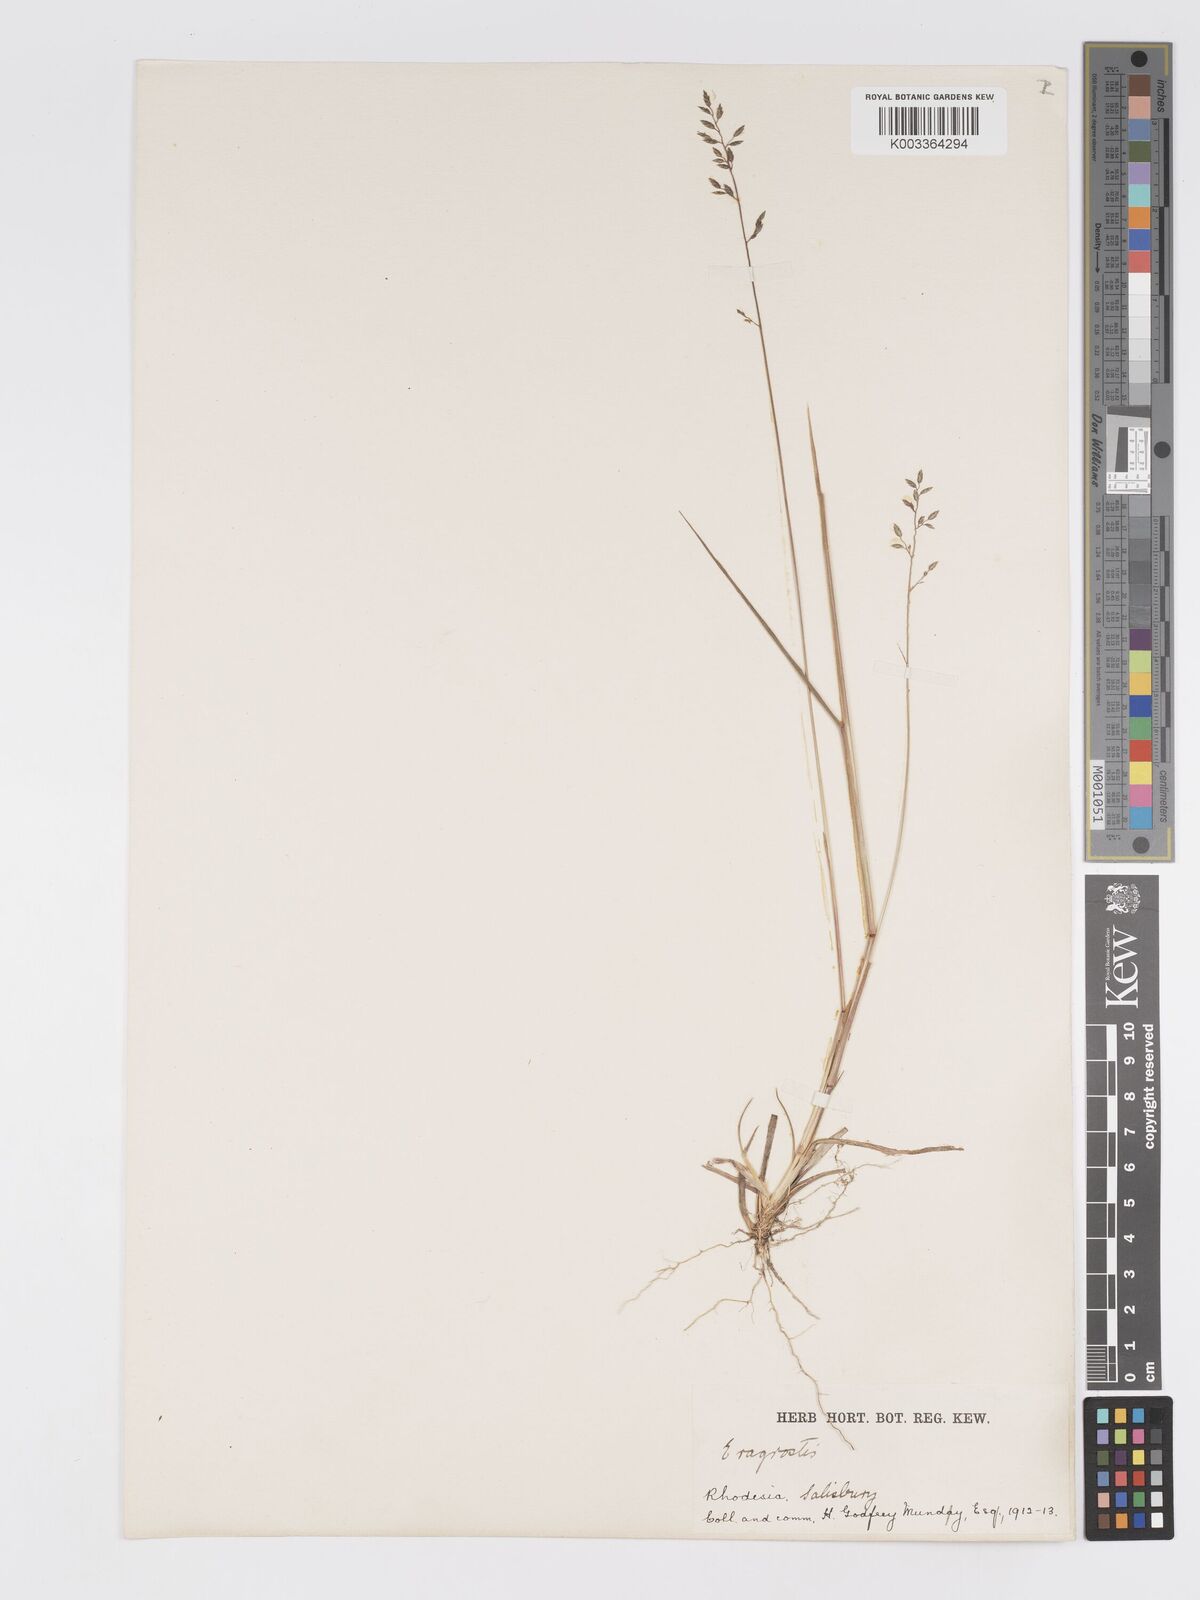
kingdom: Plantae
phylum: Tracheophyta
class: Liliopsida
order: Poales
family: Poaceae
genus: Eragrostis
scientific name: Eragrostis racemosa
